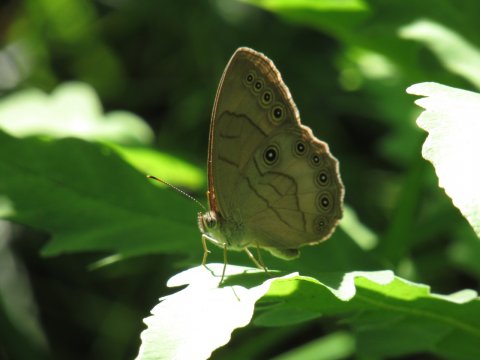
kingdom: Animalia
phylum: Arthropoda
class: Insecta
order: Lepidoptera
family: Nymphalidae
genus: Lethe
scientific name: Lethe eurydice
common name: Appalachian Eyed Brown
